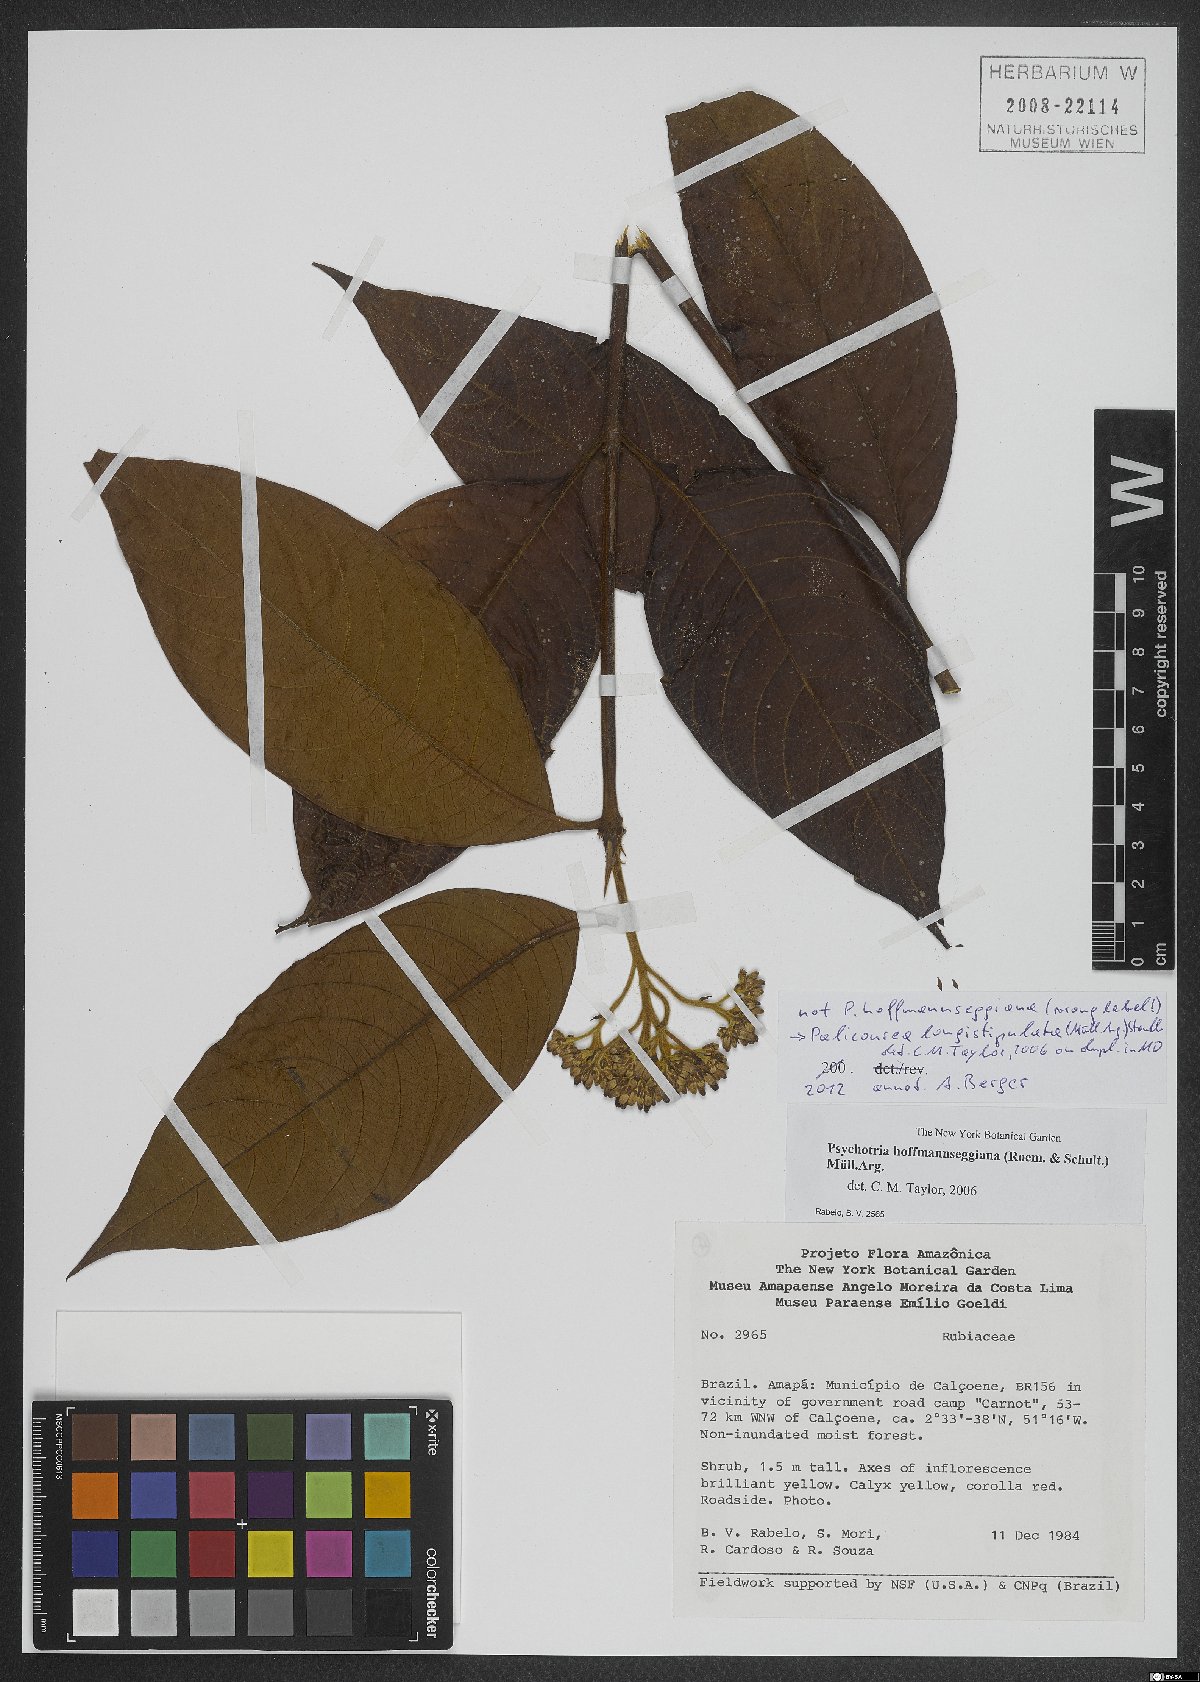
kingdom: Plantae
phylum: Tracheophyta
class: Magnoliopsida
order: Gentianales
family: Rubiaceae
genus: Palicourea
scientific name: Palicourea longistipulata
